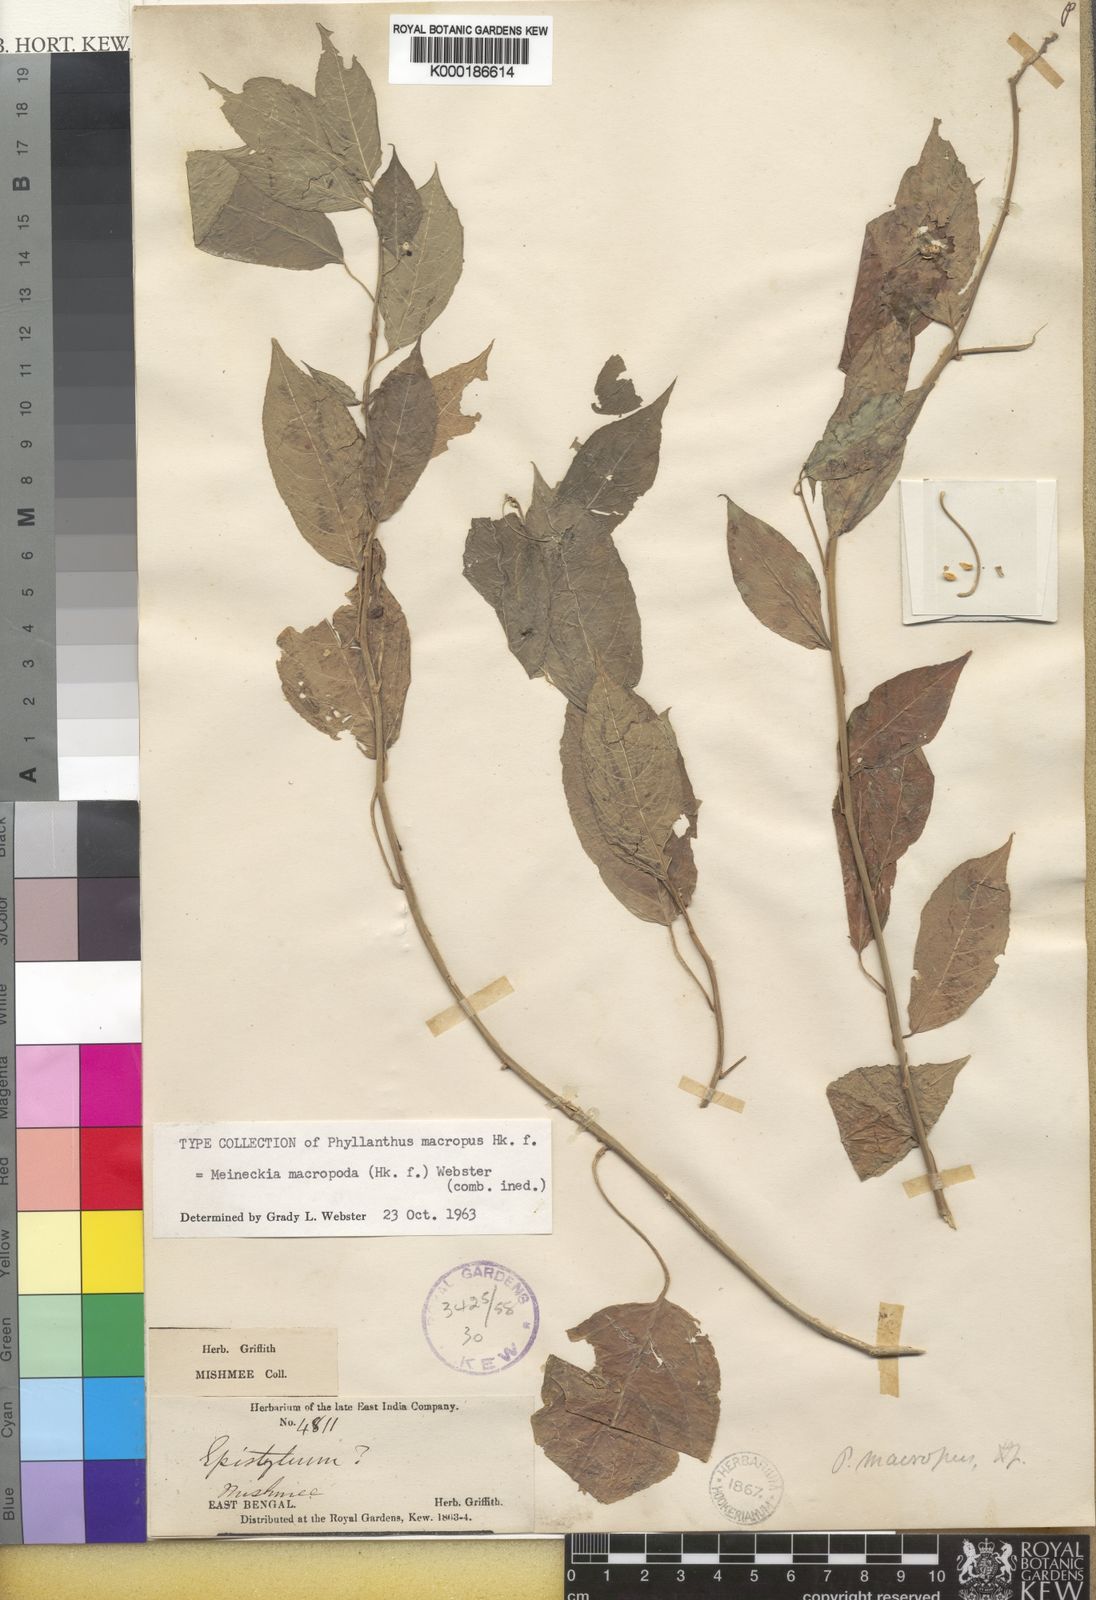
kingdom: Plantae
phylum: Tracheophyta
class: Magnoliopsida
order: Malpighiales
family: Phyllanthaceae
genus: Meineckia
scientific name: Meineckia macropus
